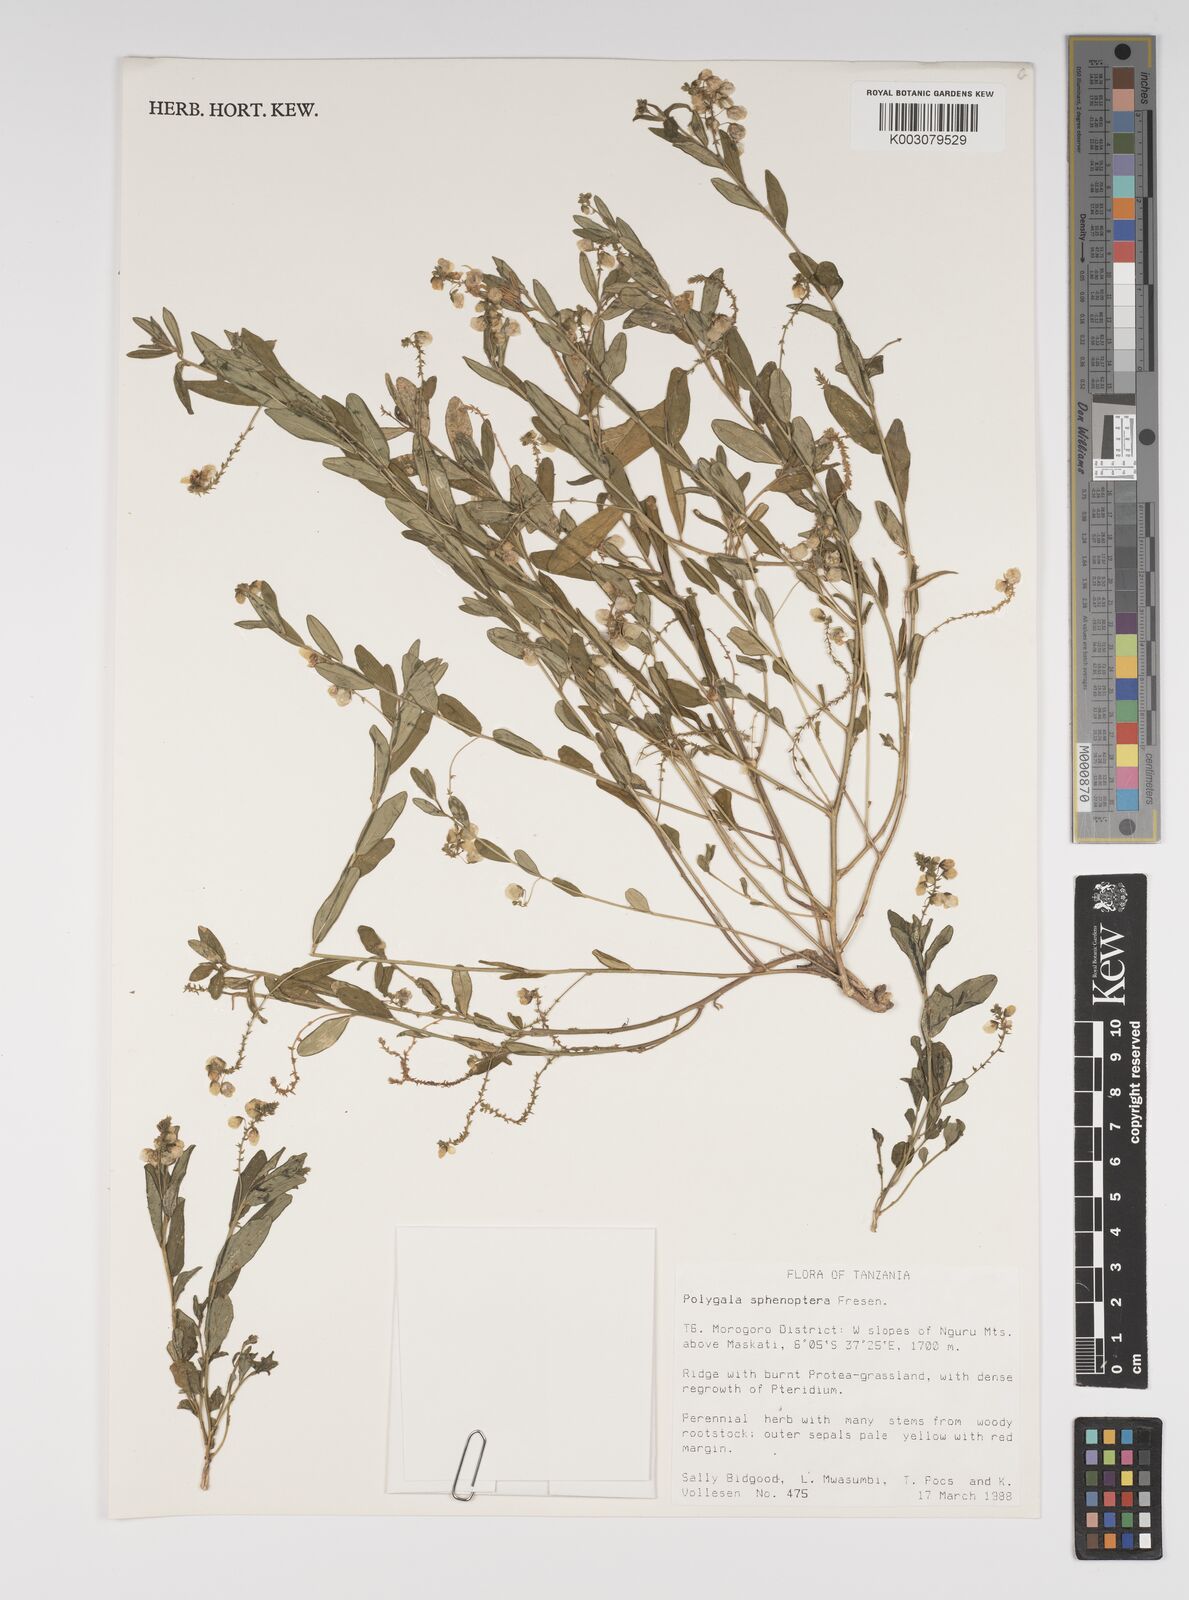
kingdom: Plantae
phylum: Tracheophyta
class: Magnoliopsida
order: Fabales
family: Polygalaceae
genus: Polygala
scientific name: Polygala sphenoptera
